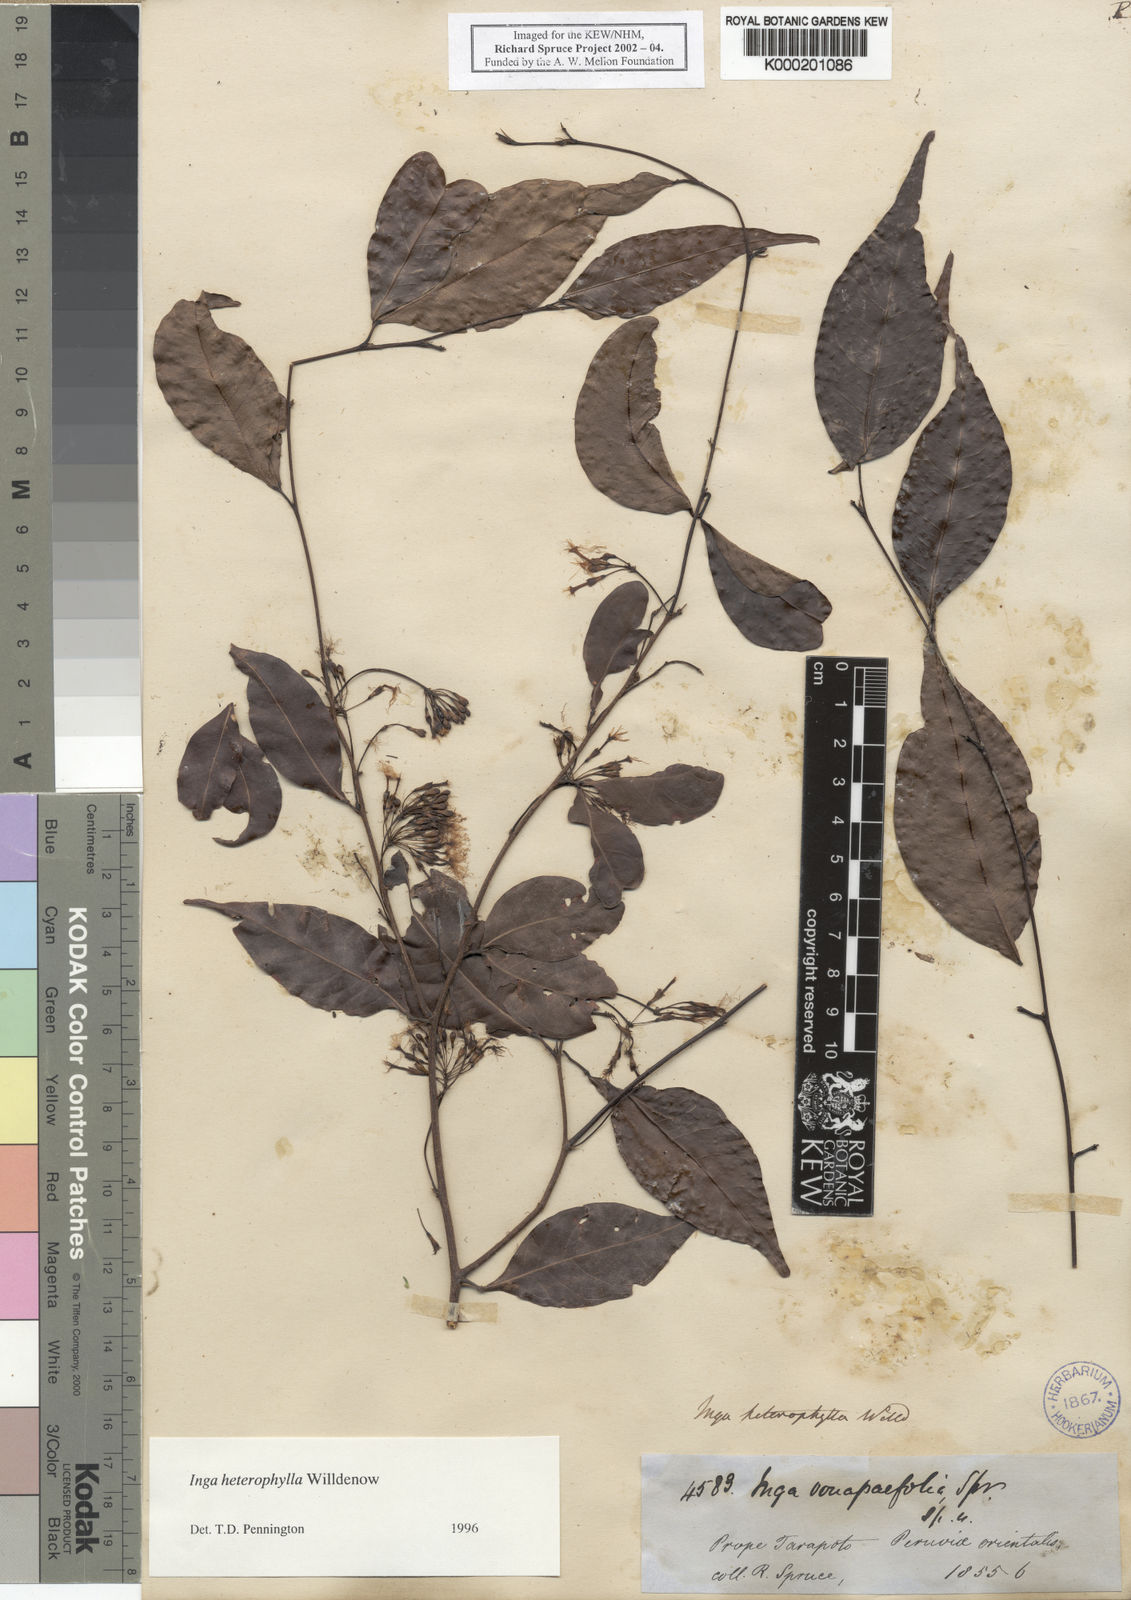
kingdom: Plantae
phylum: Tracheophyta
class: Magnoliopsida
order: Fabales
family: Fabaceae
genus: Inga
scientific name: Inga heterophylla
